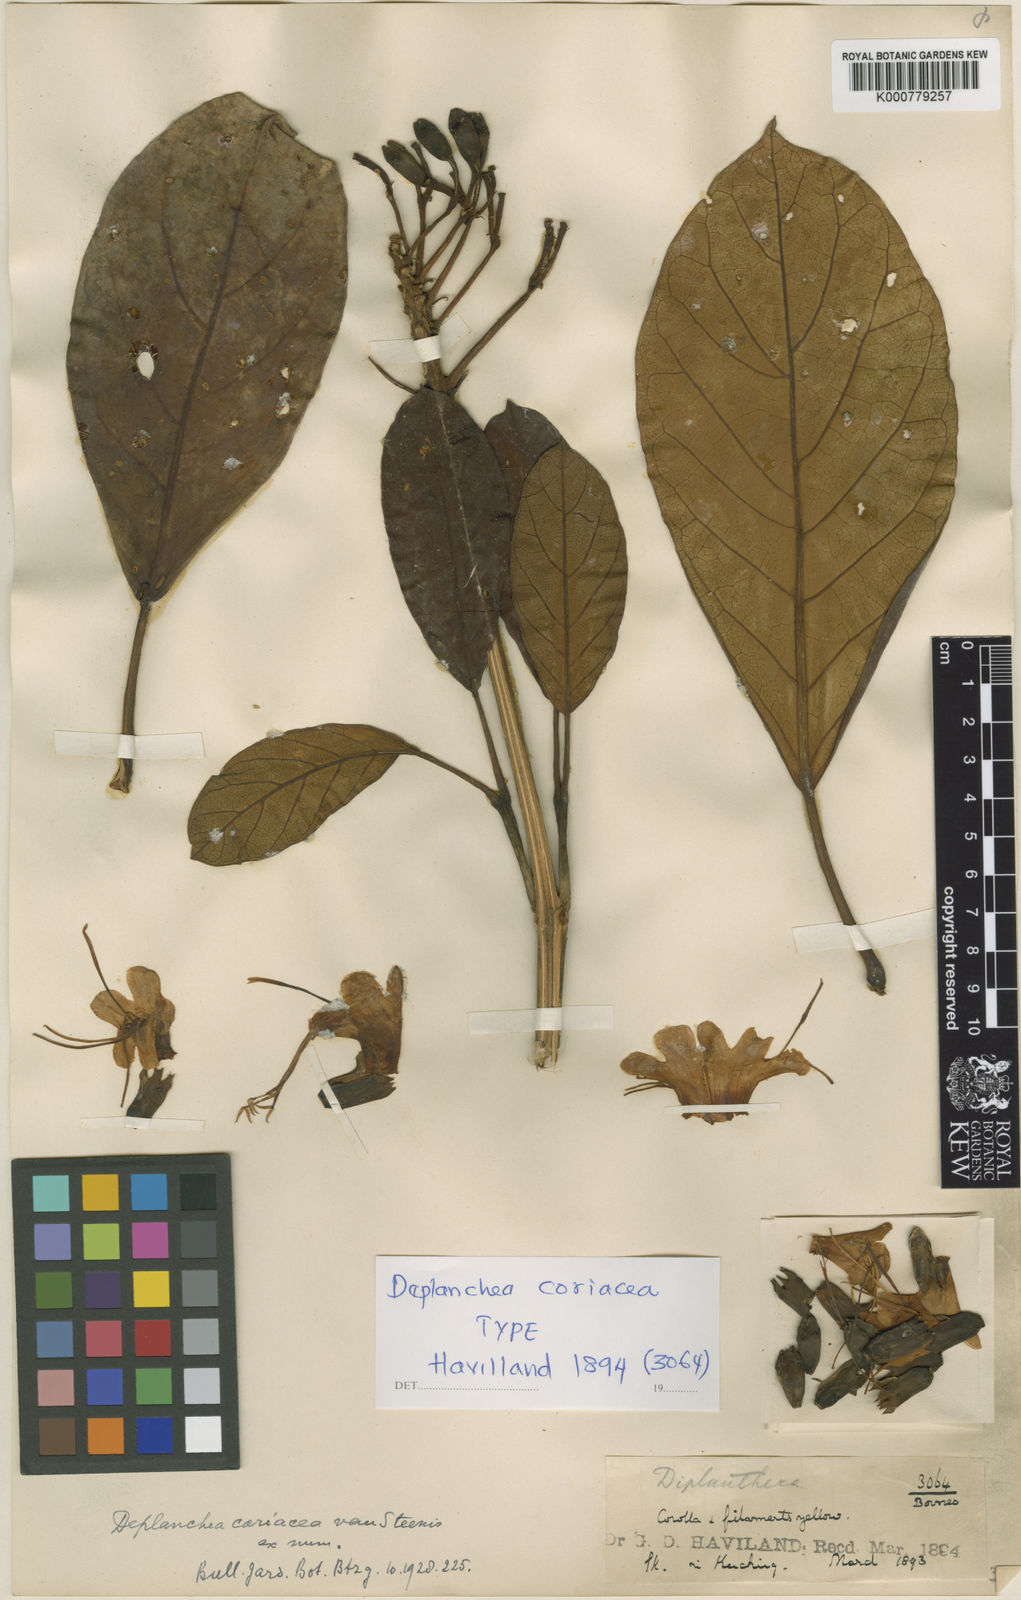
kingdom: Plantae
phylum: Tracheophyta
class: Magnoliopsida
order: Lamiales
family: Bignoniaceae
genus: Deplanchea
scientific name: Deplanchea bancana
